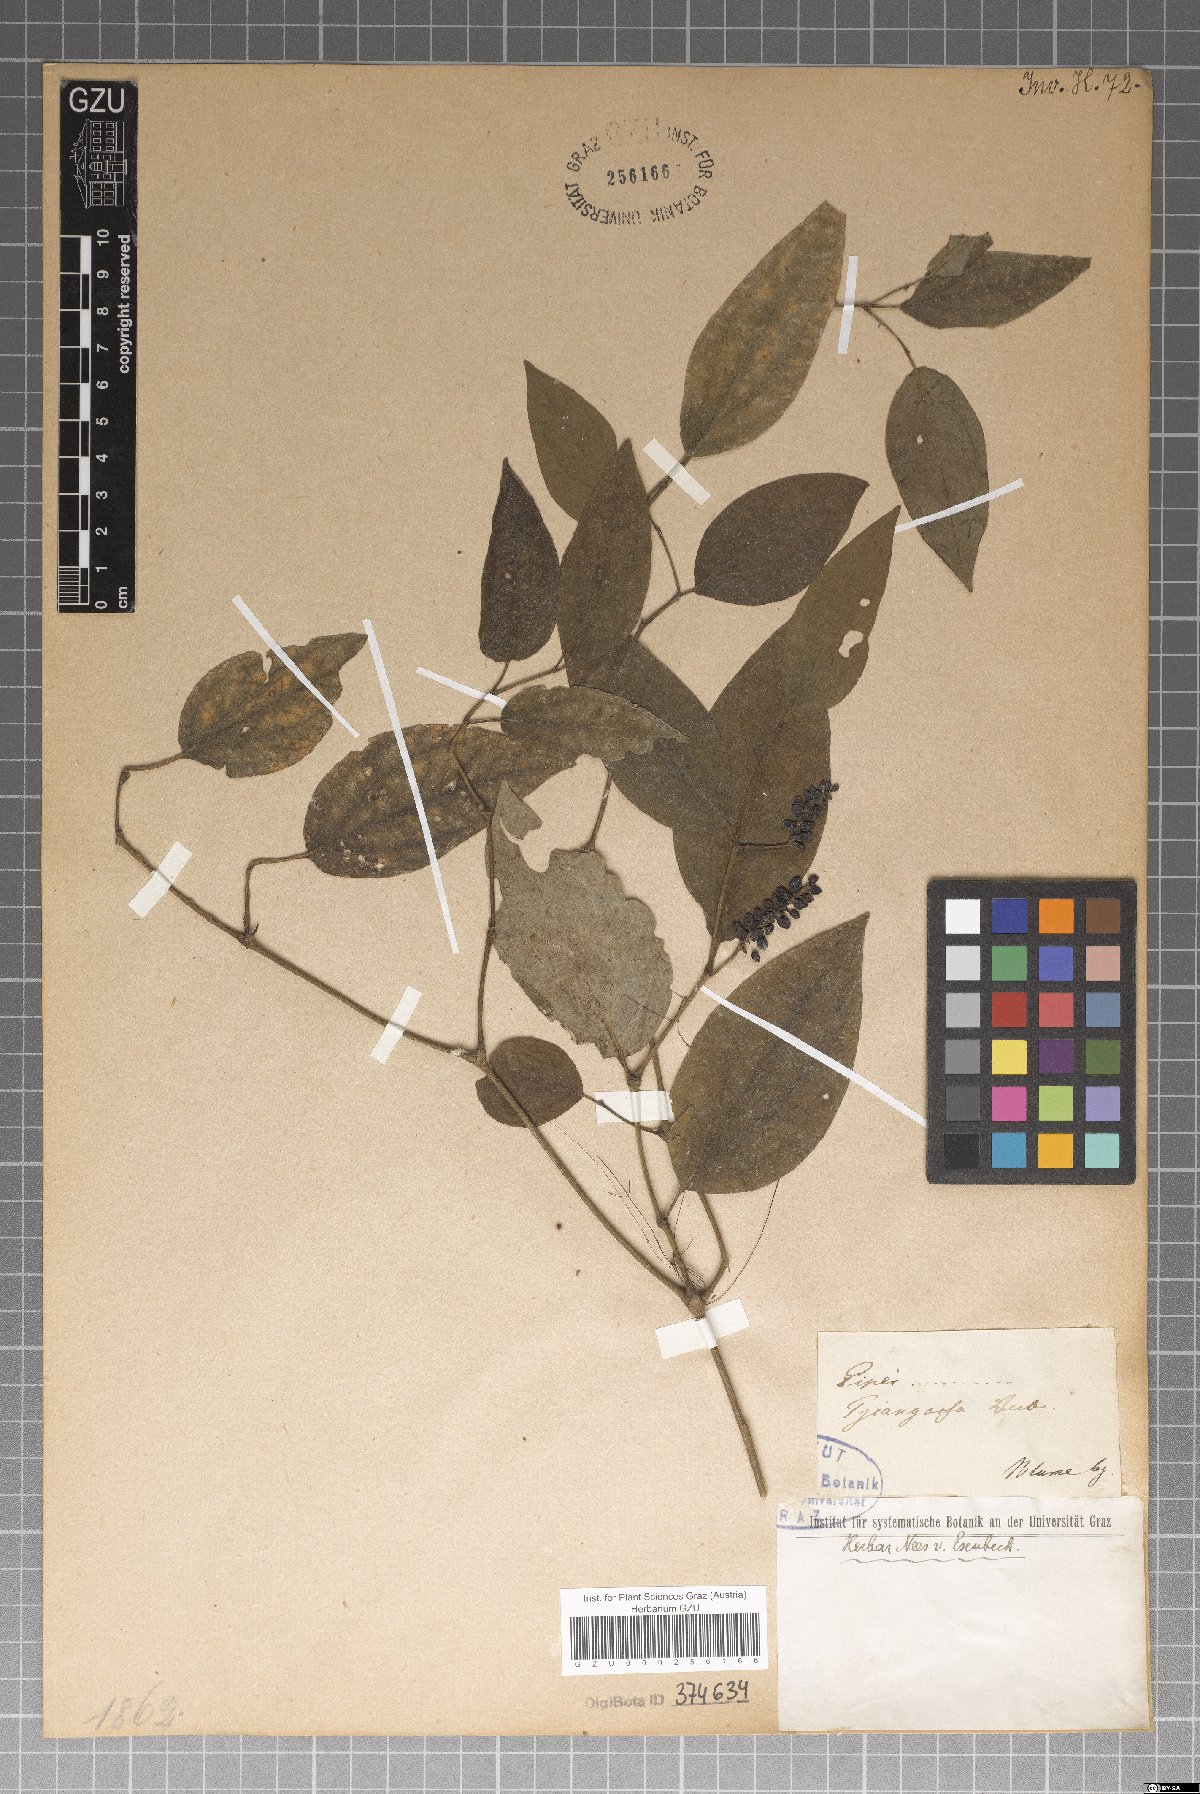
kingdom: Plantae
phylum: Tracheophyta
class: Magnoliopsida
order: Piperales
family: Piperaceae
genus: Piper
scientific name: Piper
